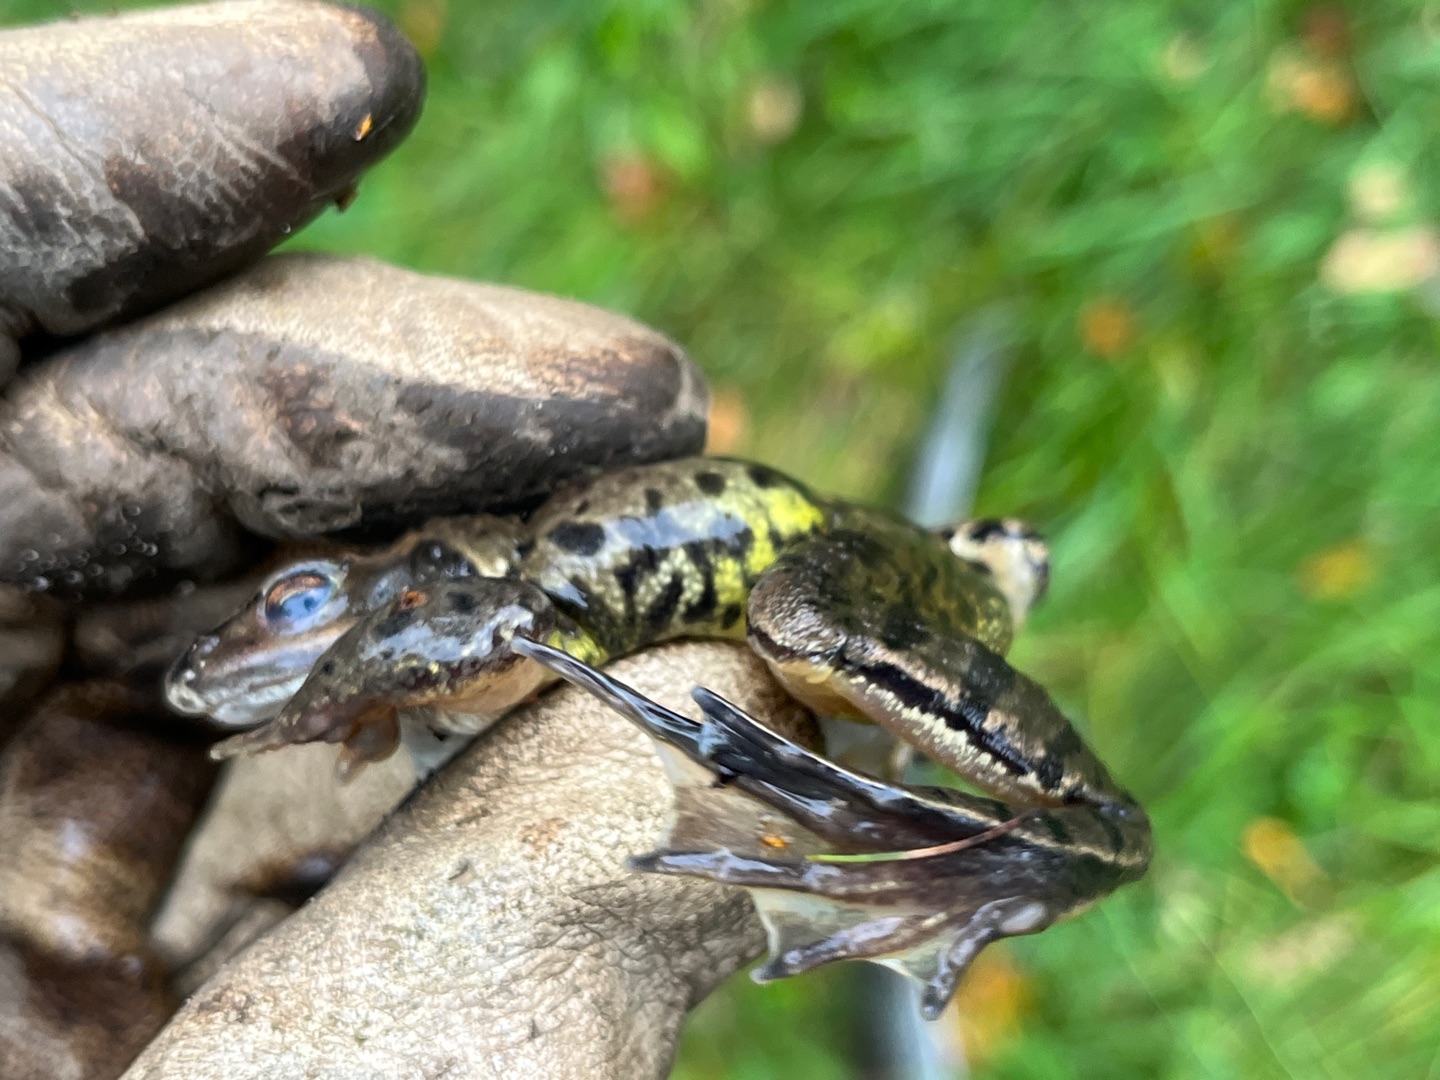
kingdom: Animalia
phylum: Chordata
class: Amphibia
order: Anura
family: Ranidae
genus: Rana
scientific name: Rana arvalis
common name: Spidssnudet frø
